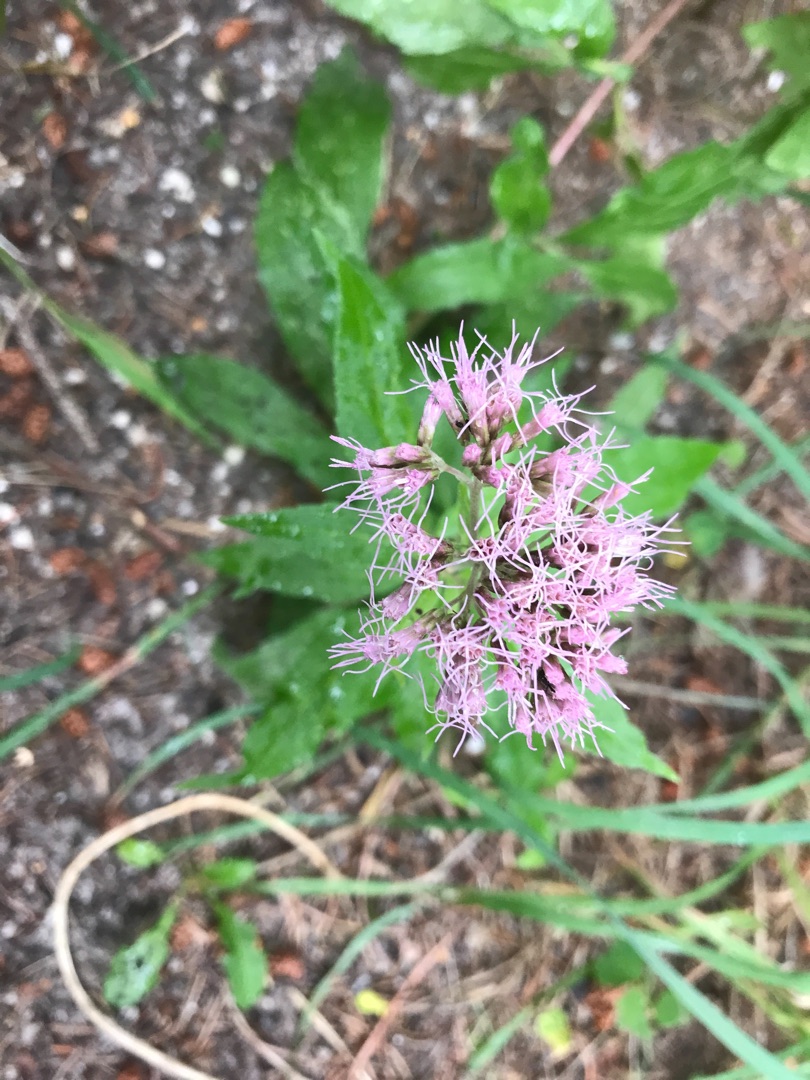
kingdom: Plantae
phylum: Tracheophyta
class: Magnoliopsida
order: Asterales
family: Asteraceae
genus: Eupatorium
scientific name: Eupatorium cannabinum
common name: Hjortetrøst
